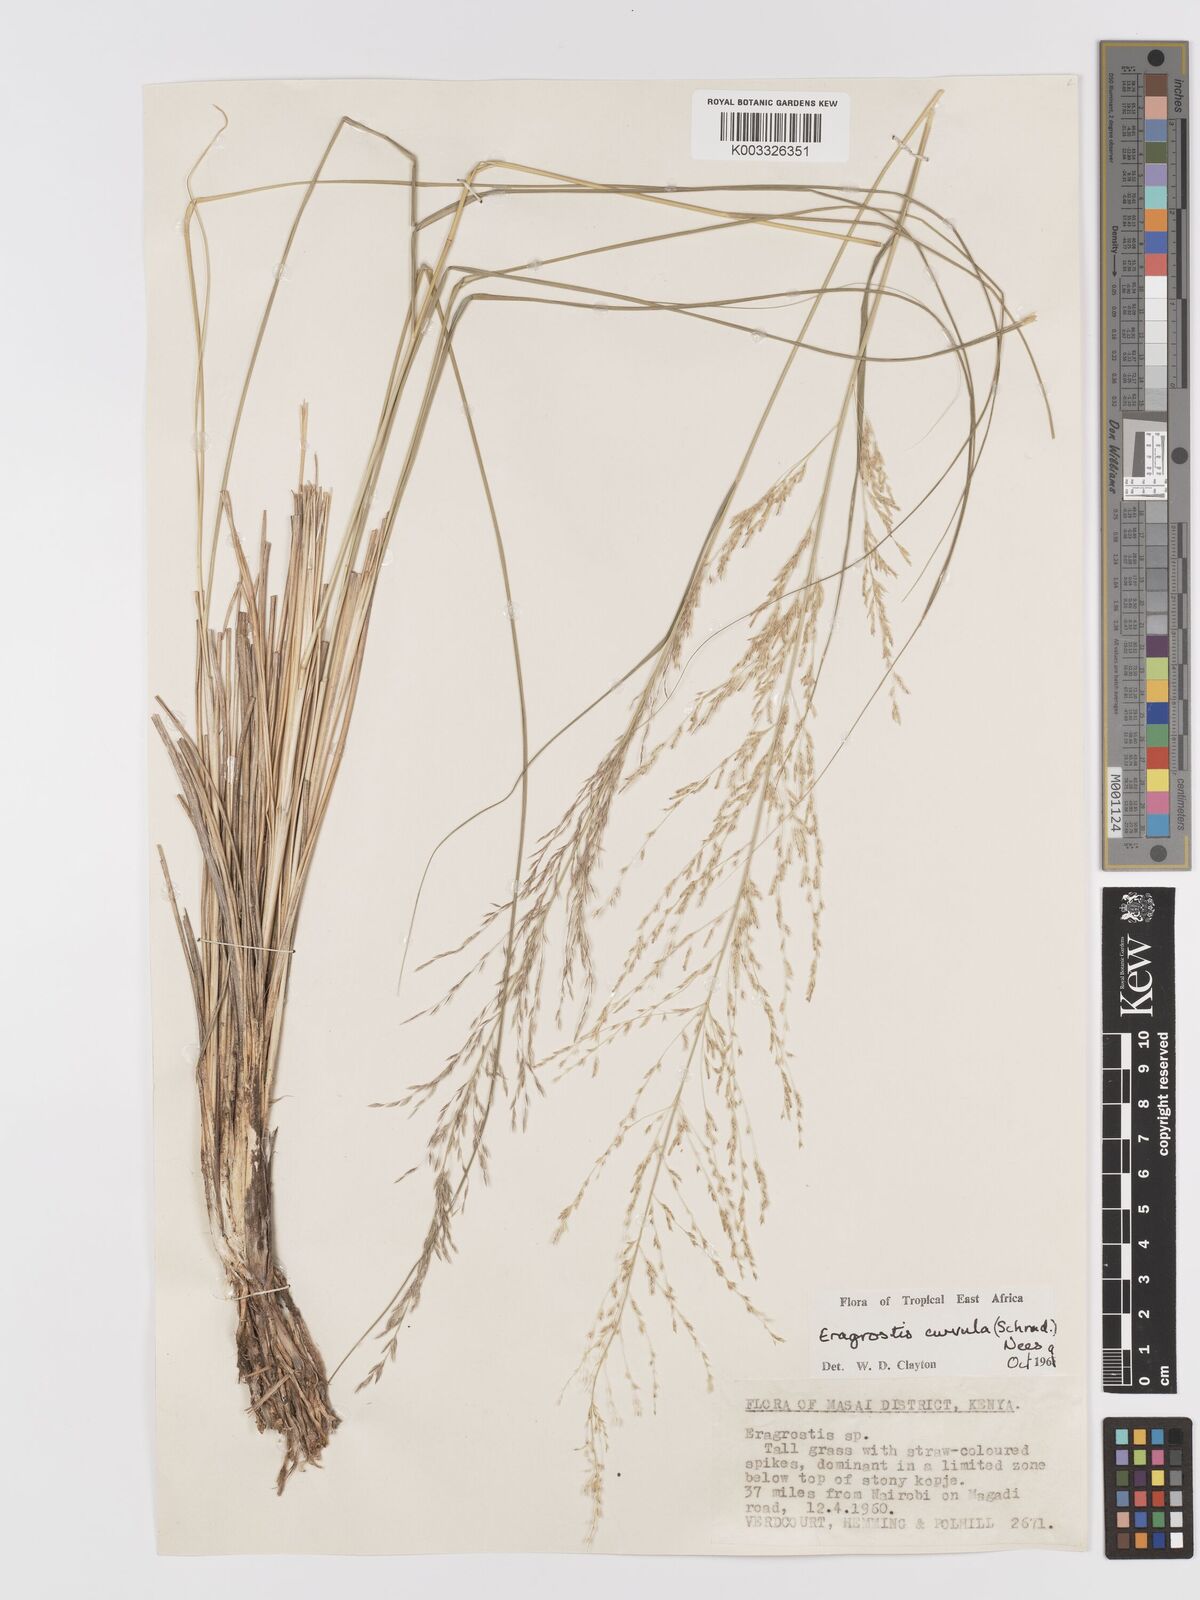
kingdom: Plantae
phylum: Tracheophyta
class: Liliopsida
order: Poales
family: Poaceae
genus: Eragrostis
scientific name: Eragrostis curvula
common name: African love-grass
